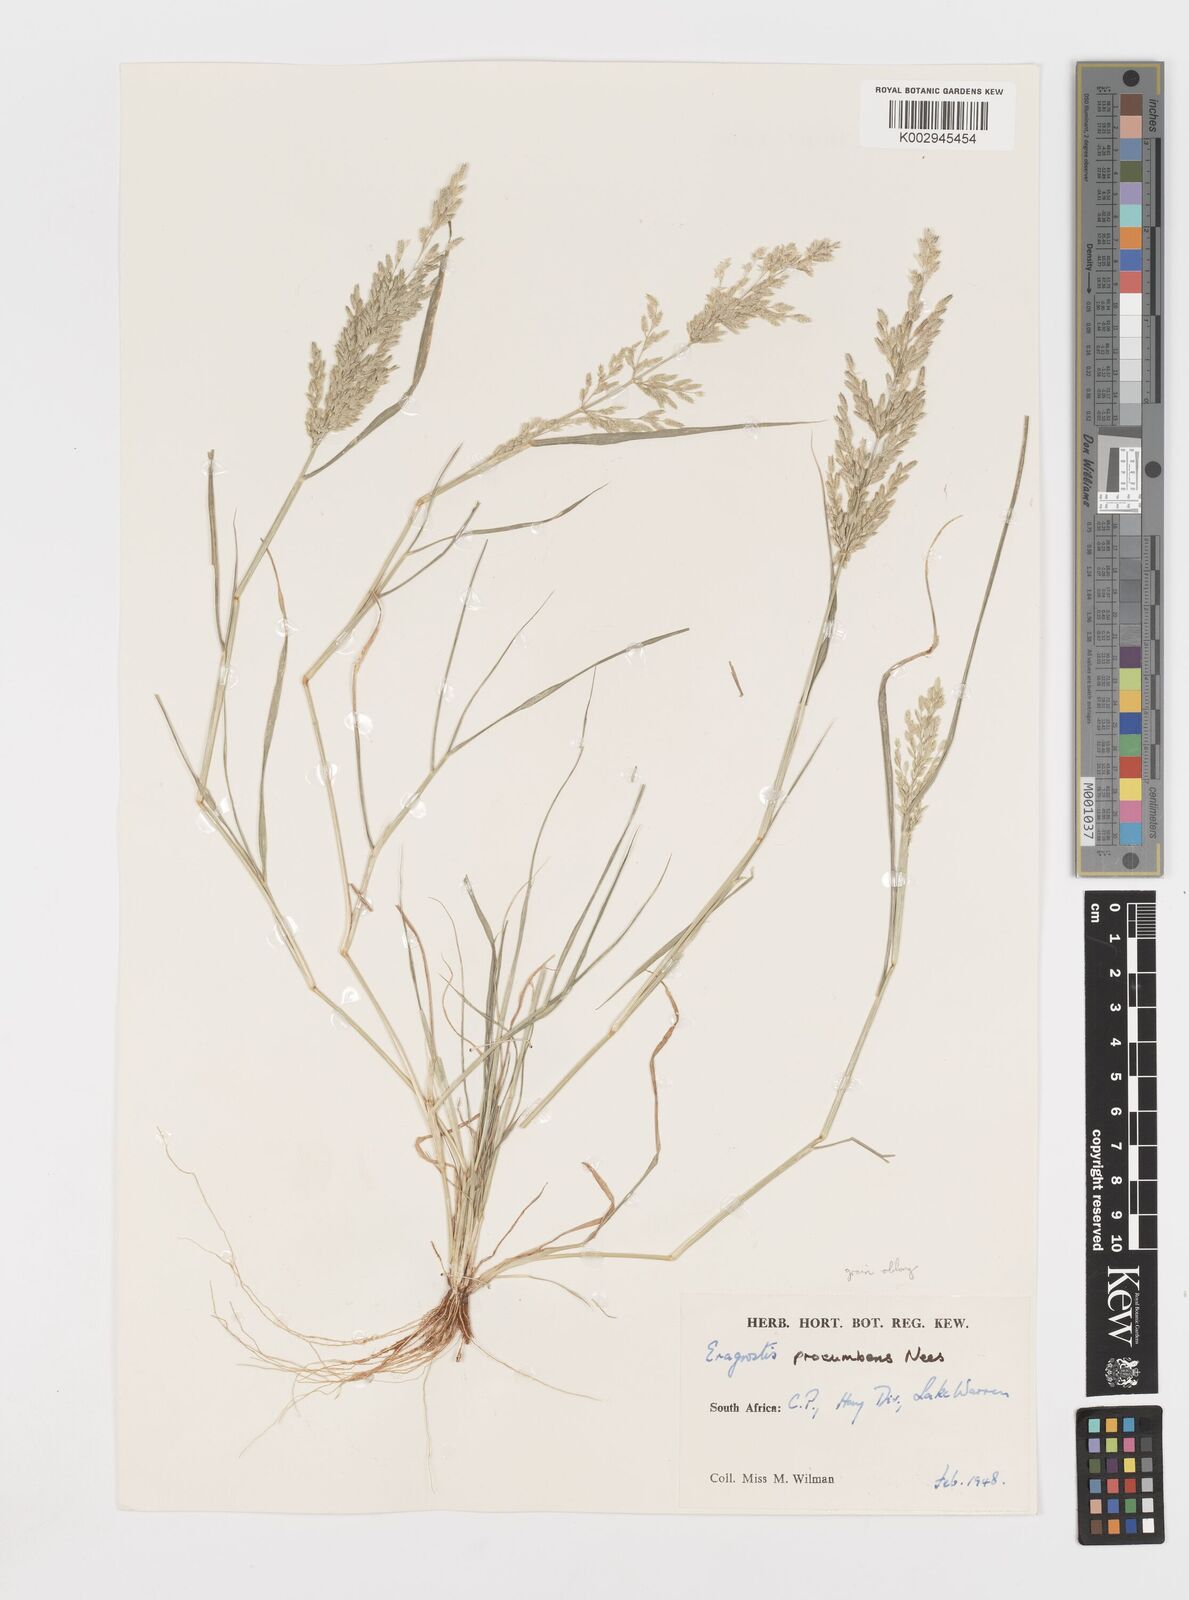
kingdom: Plantae
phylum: Tracheophyta
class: Liliopsida
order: Poales
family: Poaceae
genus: Eragrostis
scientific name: Eragrostis procumbens
